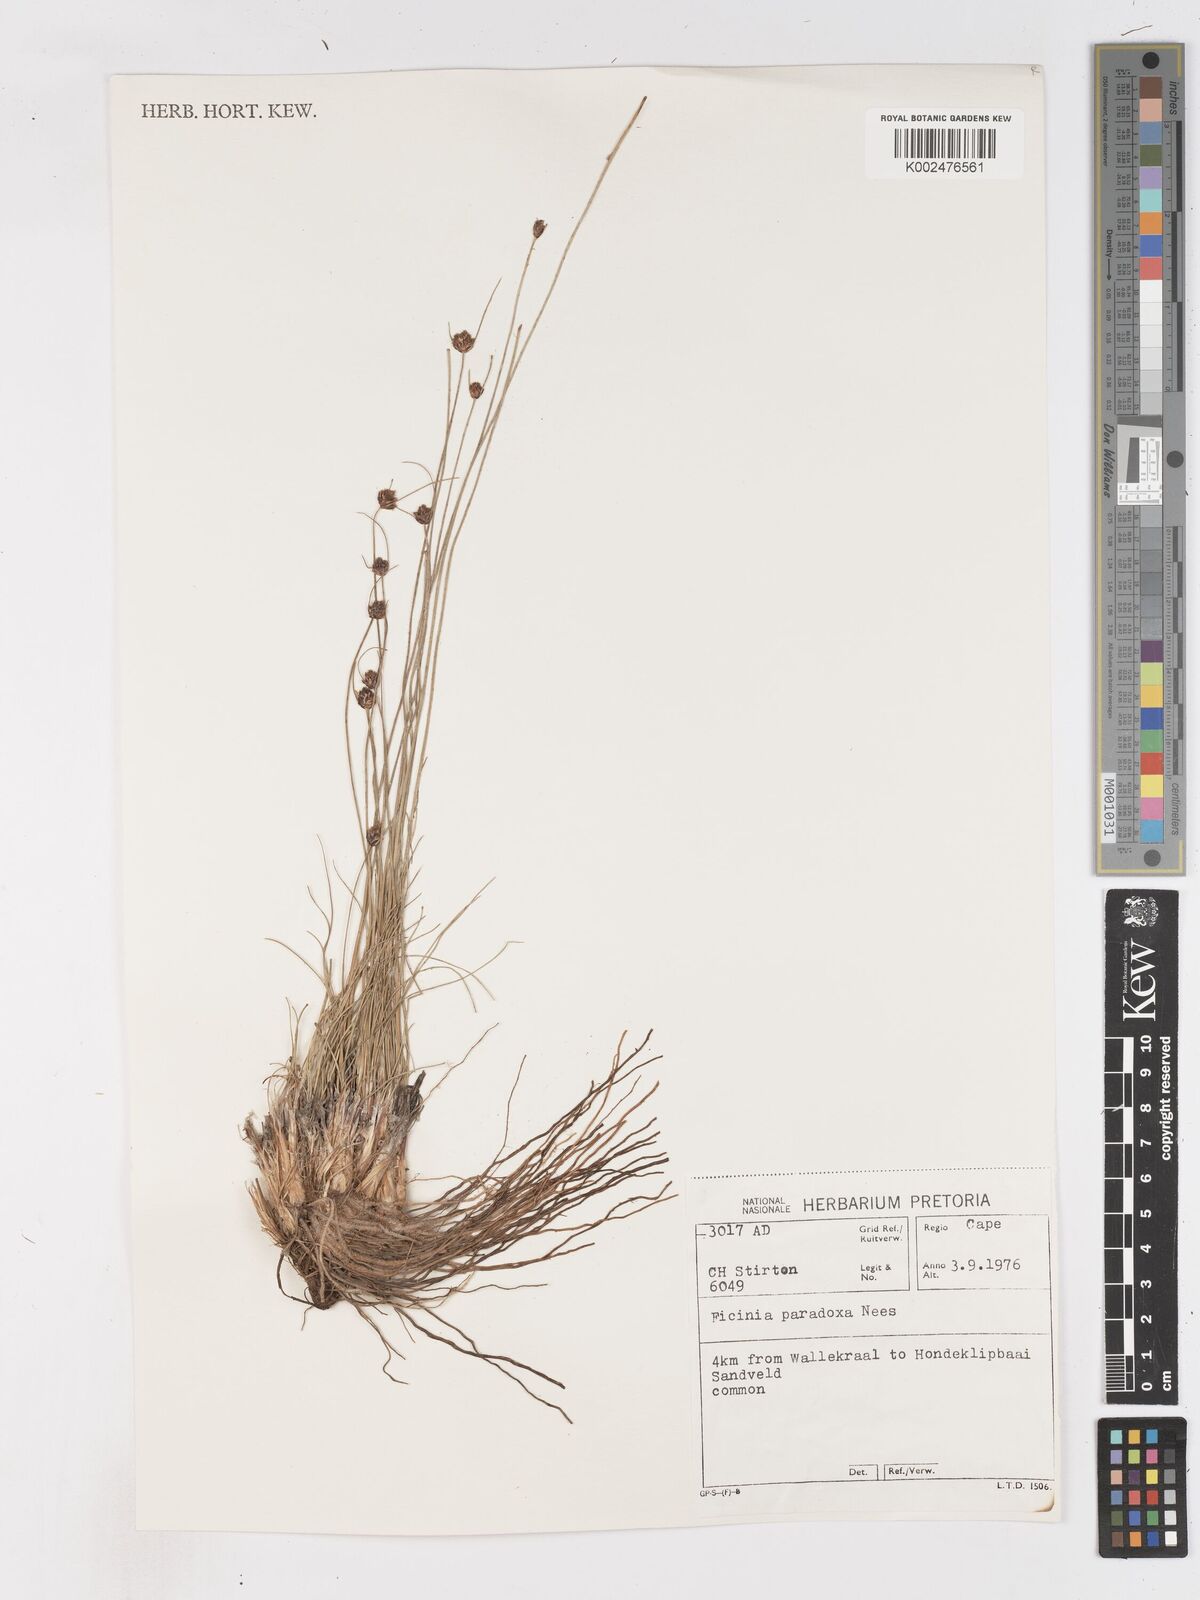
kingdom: Plantae
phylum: Tracheophyta
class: Liliopsida
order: Poales
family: Cyperaceae
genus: Ficinia
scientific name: Ficinia
